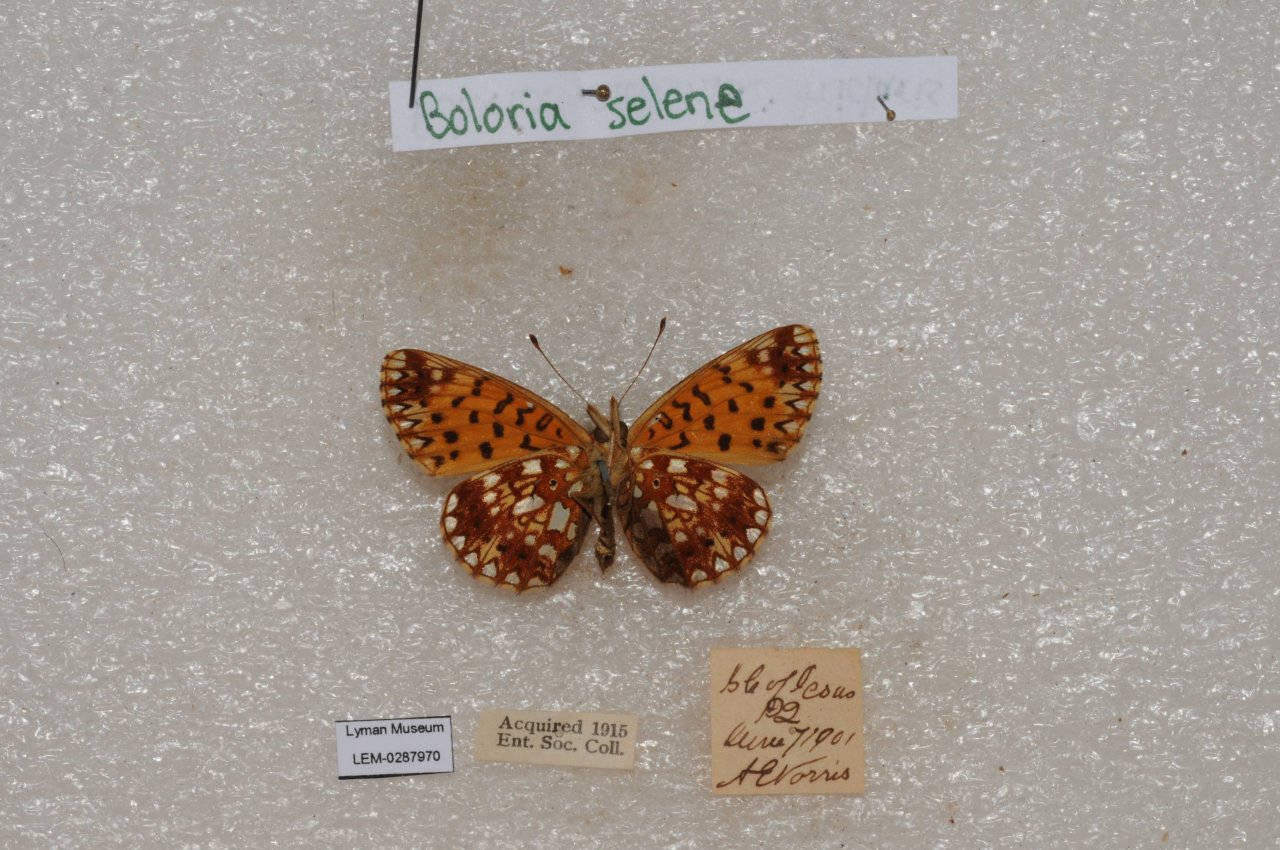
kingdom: Animalia
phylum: Arthropoda
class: Insecta
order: Lepidoptera
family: Nymphalidae
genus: Boloria
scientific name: Boloria selene
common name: Silver-bordered Fritillary
